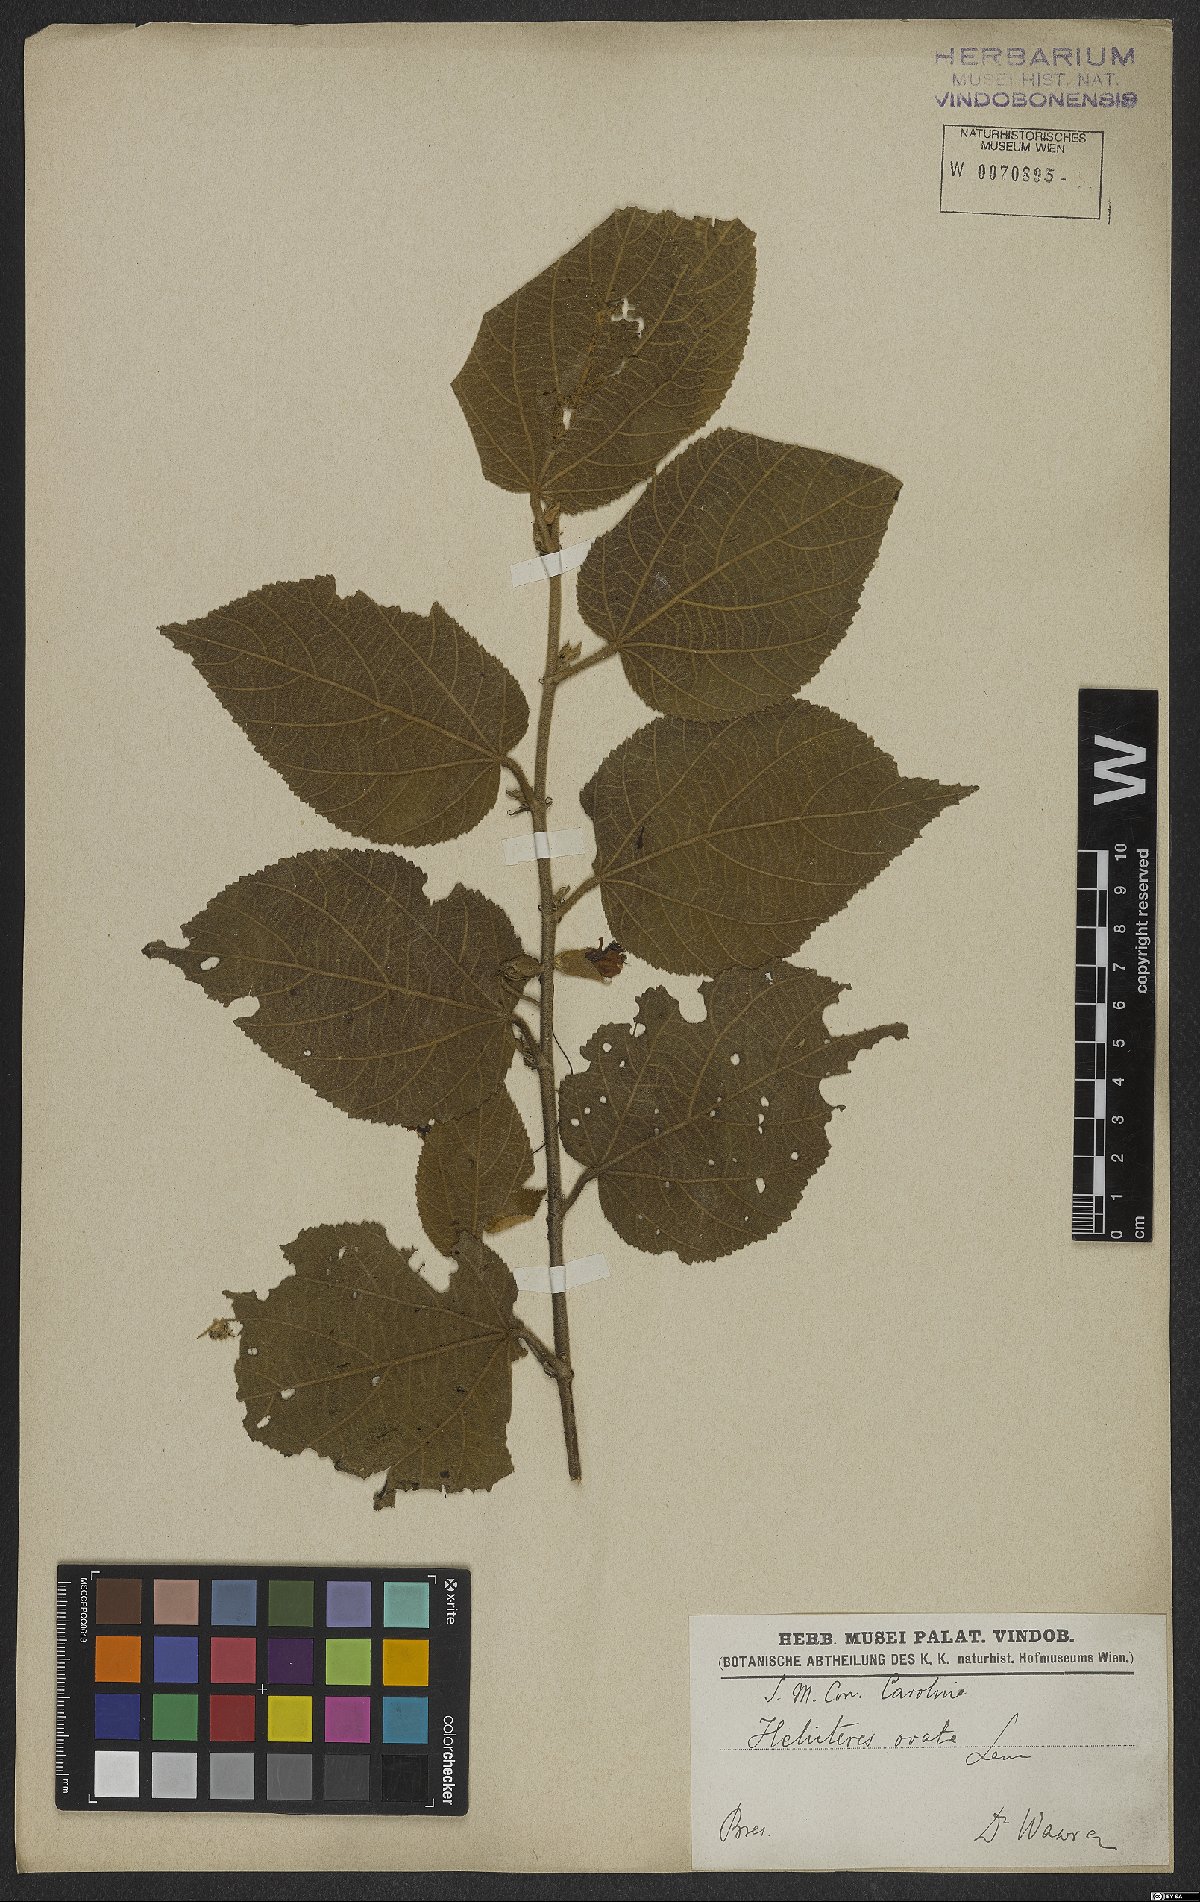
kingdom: Plantae
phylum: Tracheophyta
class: Magnoliopsida
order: Malvales
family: Malvaceae
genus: Helicteres
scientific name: Helicteres ovata
